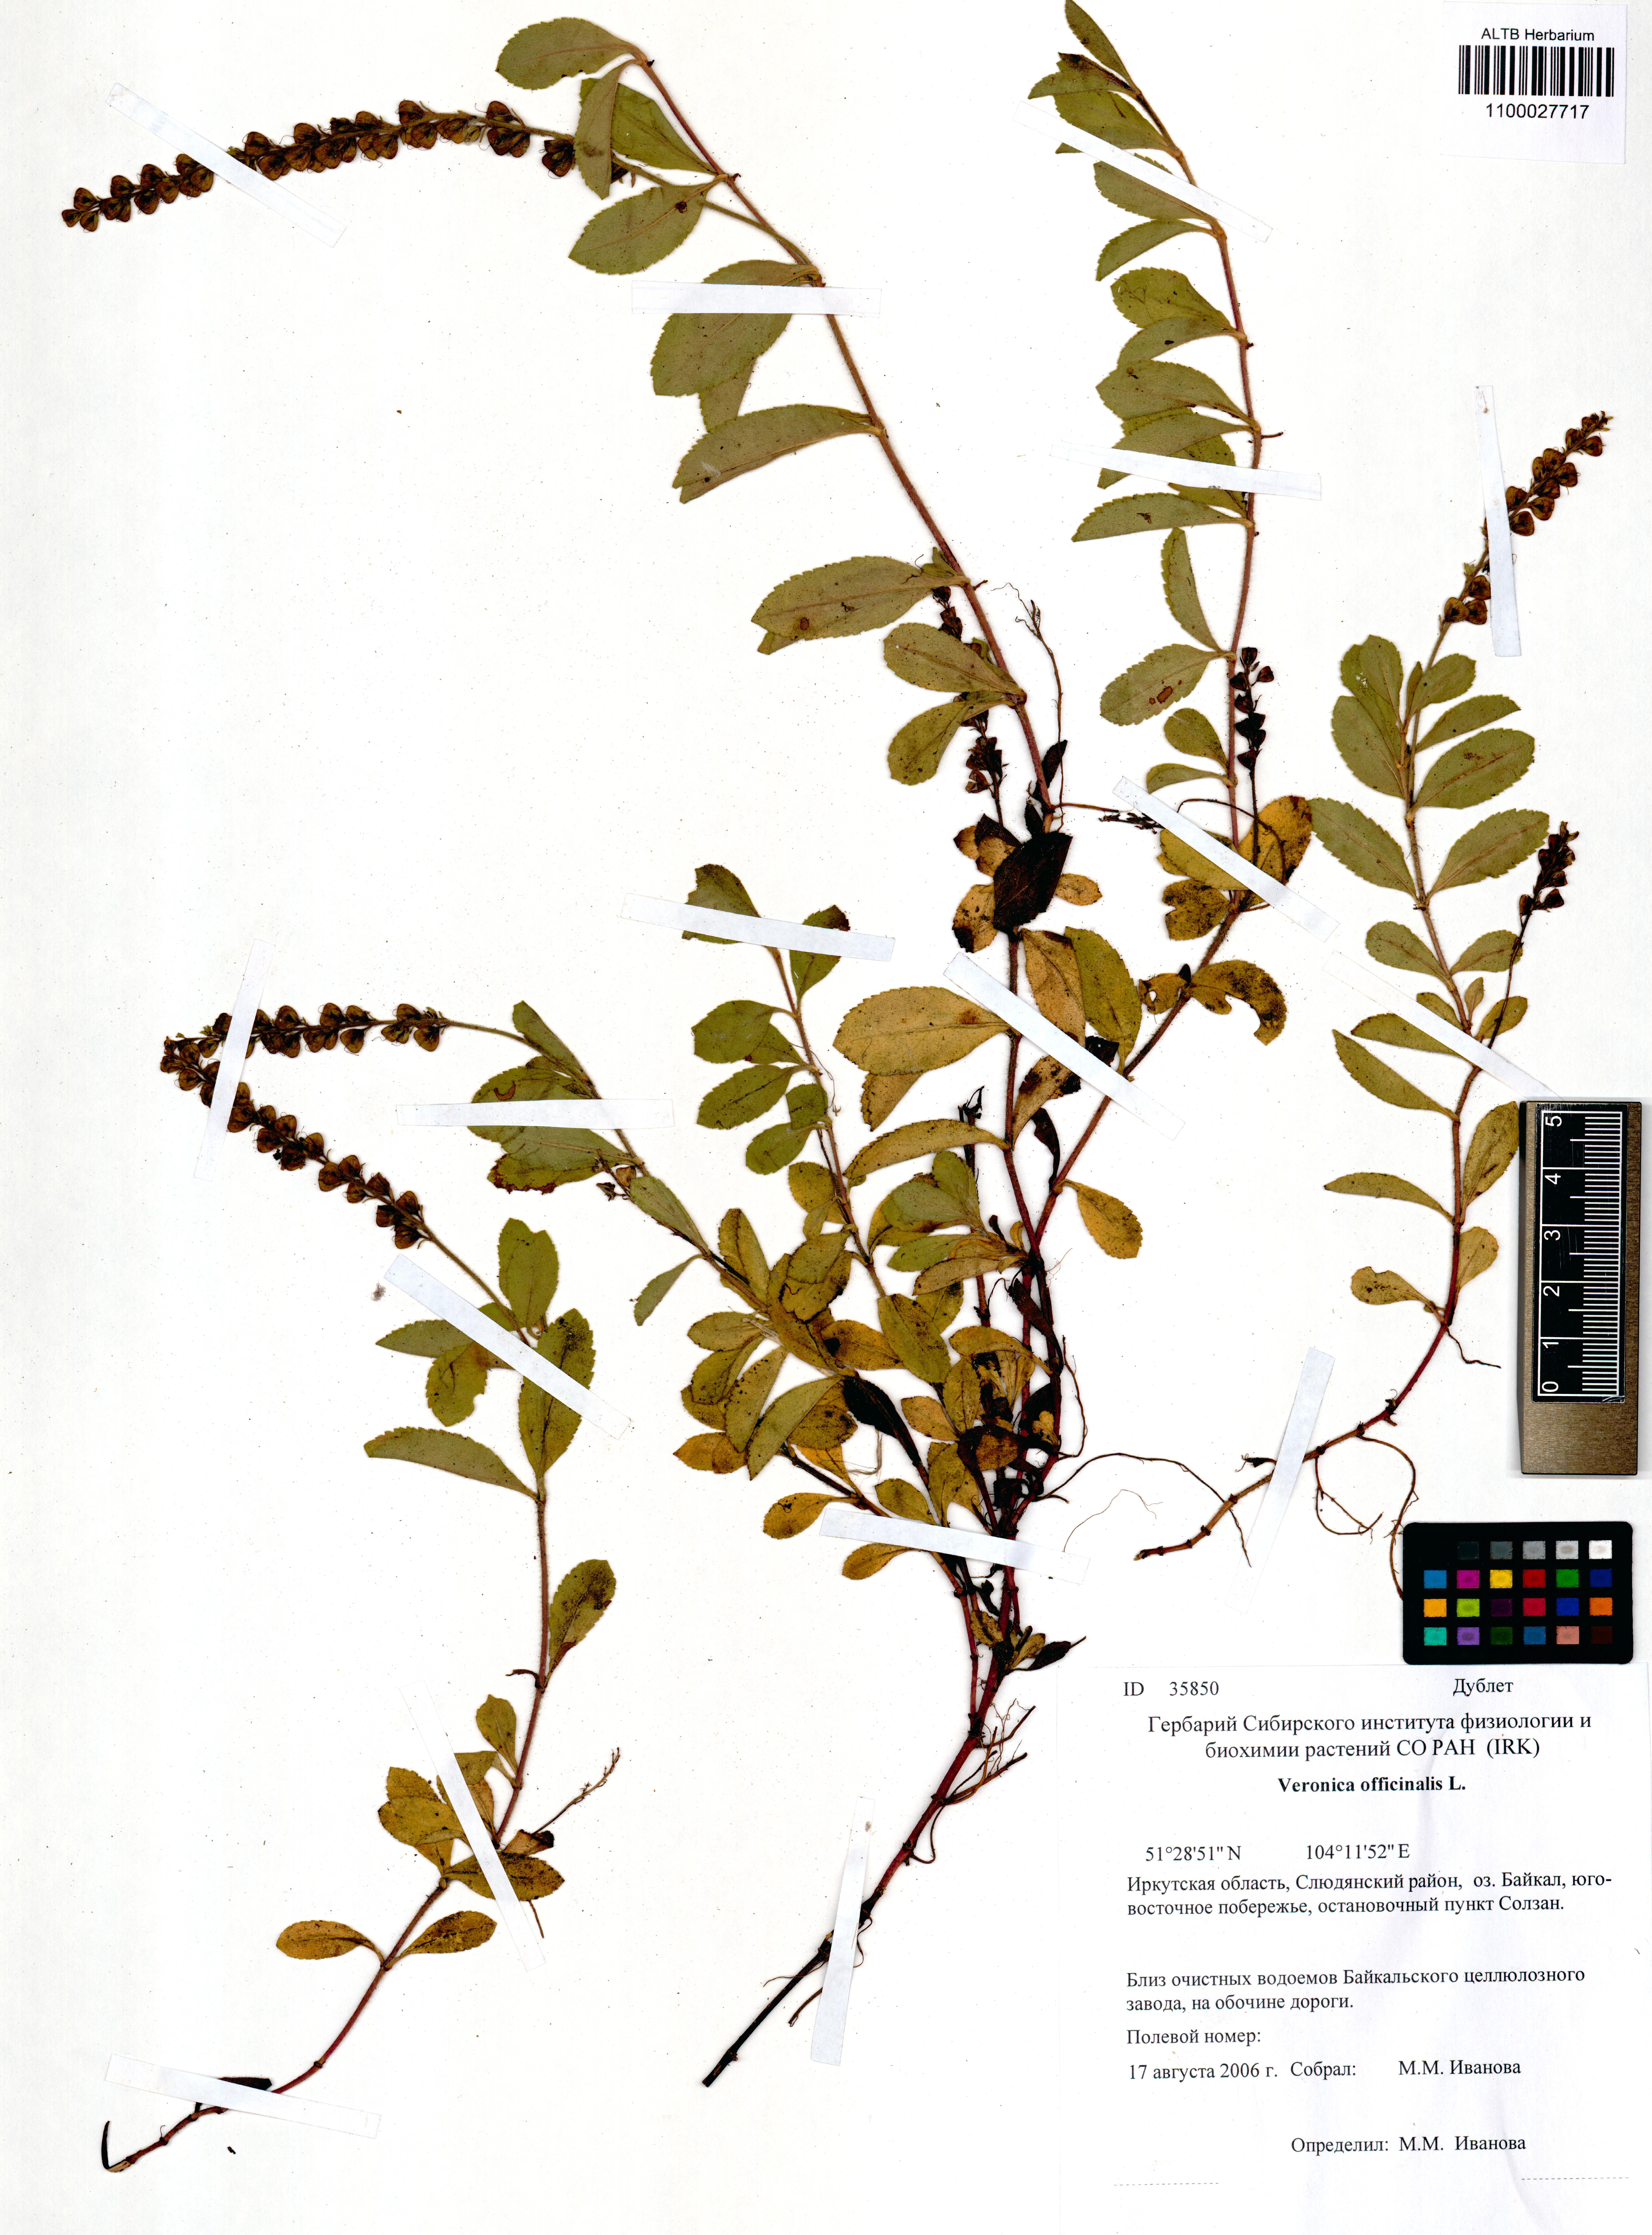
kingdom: Plantae
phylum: Tracheophyta
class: Magnoliopsida
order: Lamiales
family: Plantaginaceae
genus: Veronica
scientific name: Veronica officinalis
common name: Common speedwell
